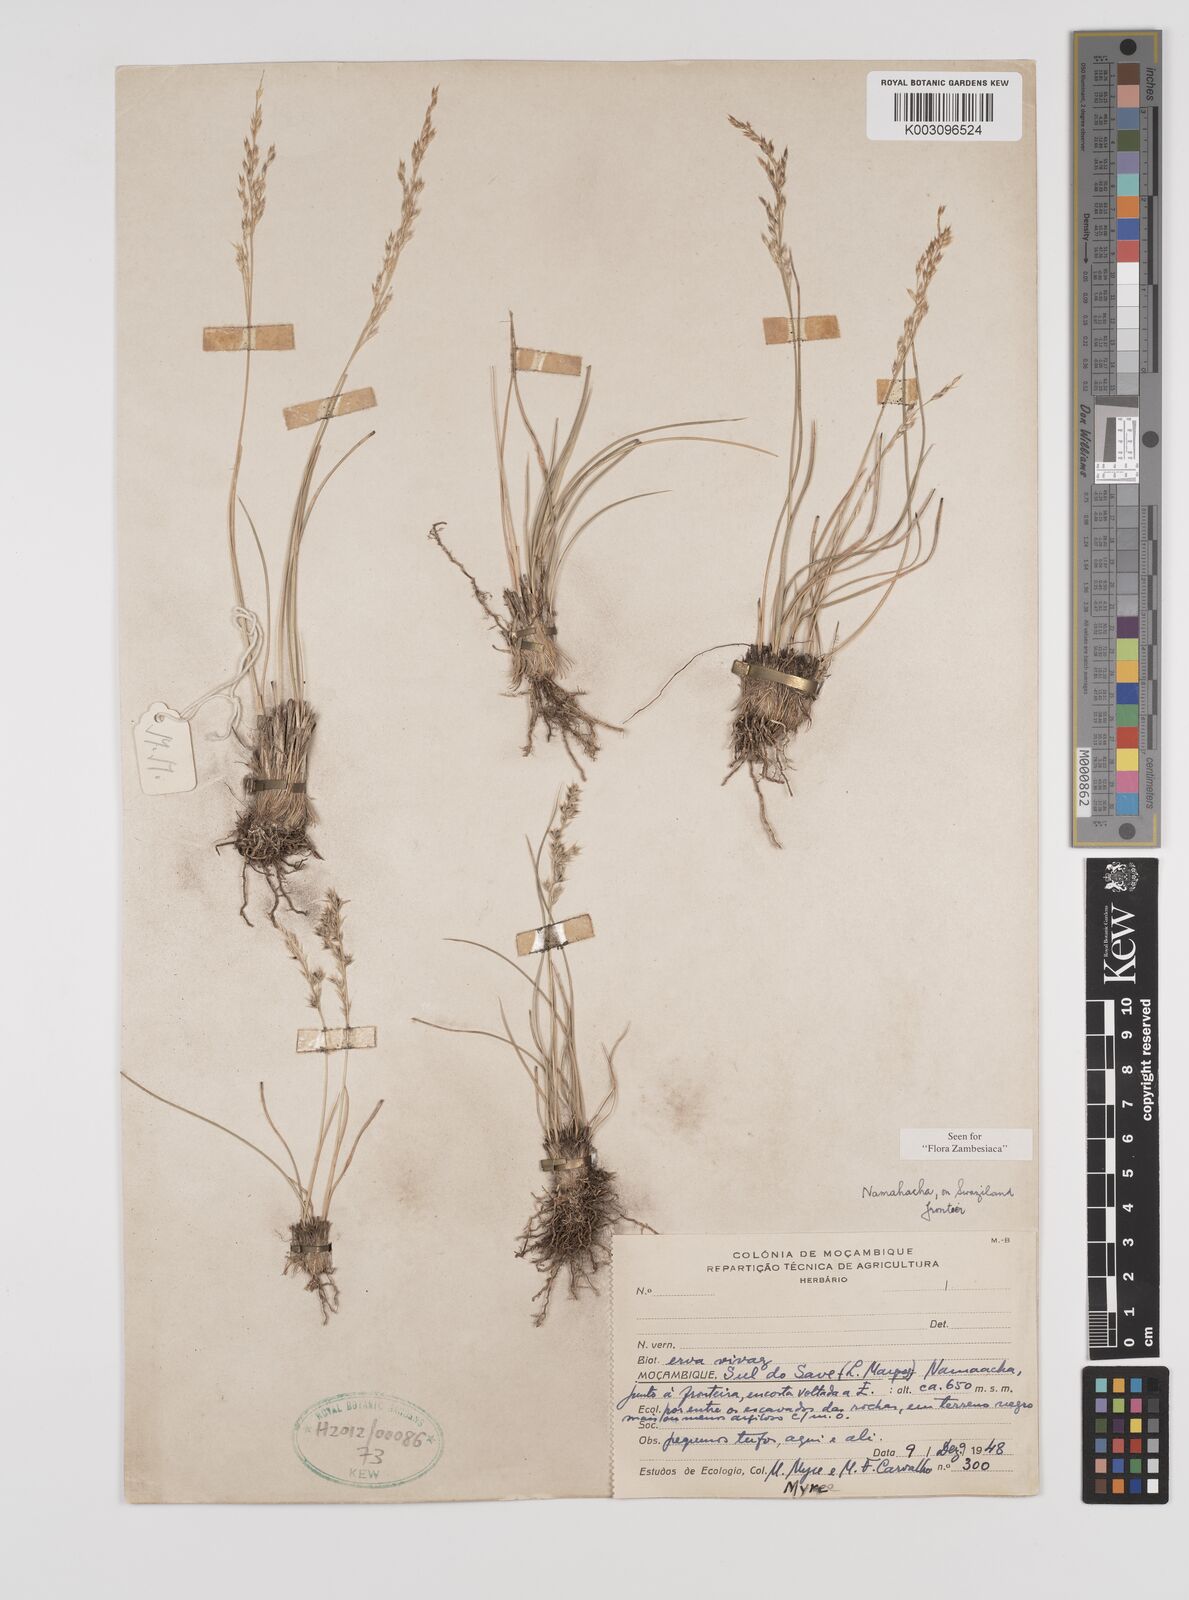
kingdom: Plantae
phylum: Tracheophyta
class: Liliopsida
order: Poales
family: Poaceae
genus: Styppeiochloa
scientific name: Styppeiochloa gynoglossa
